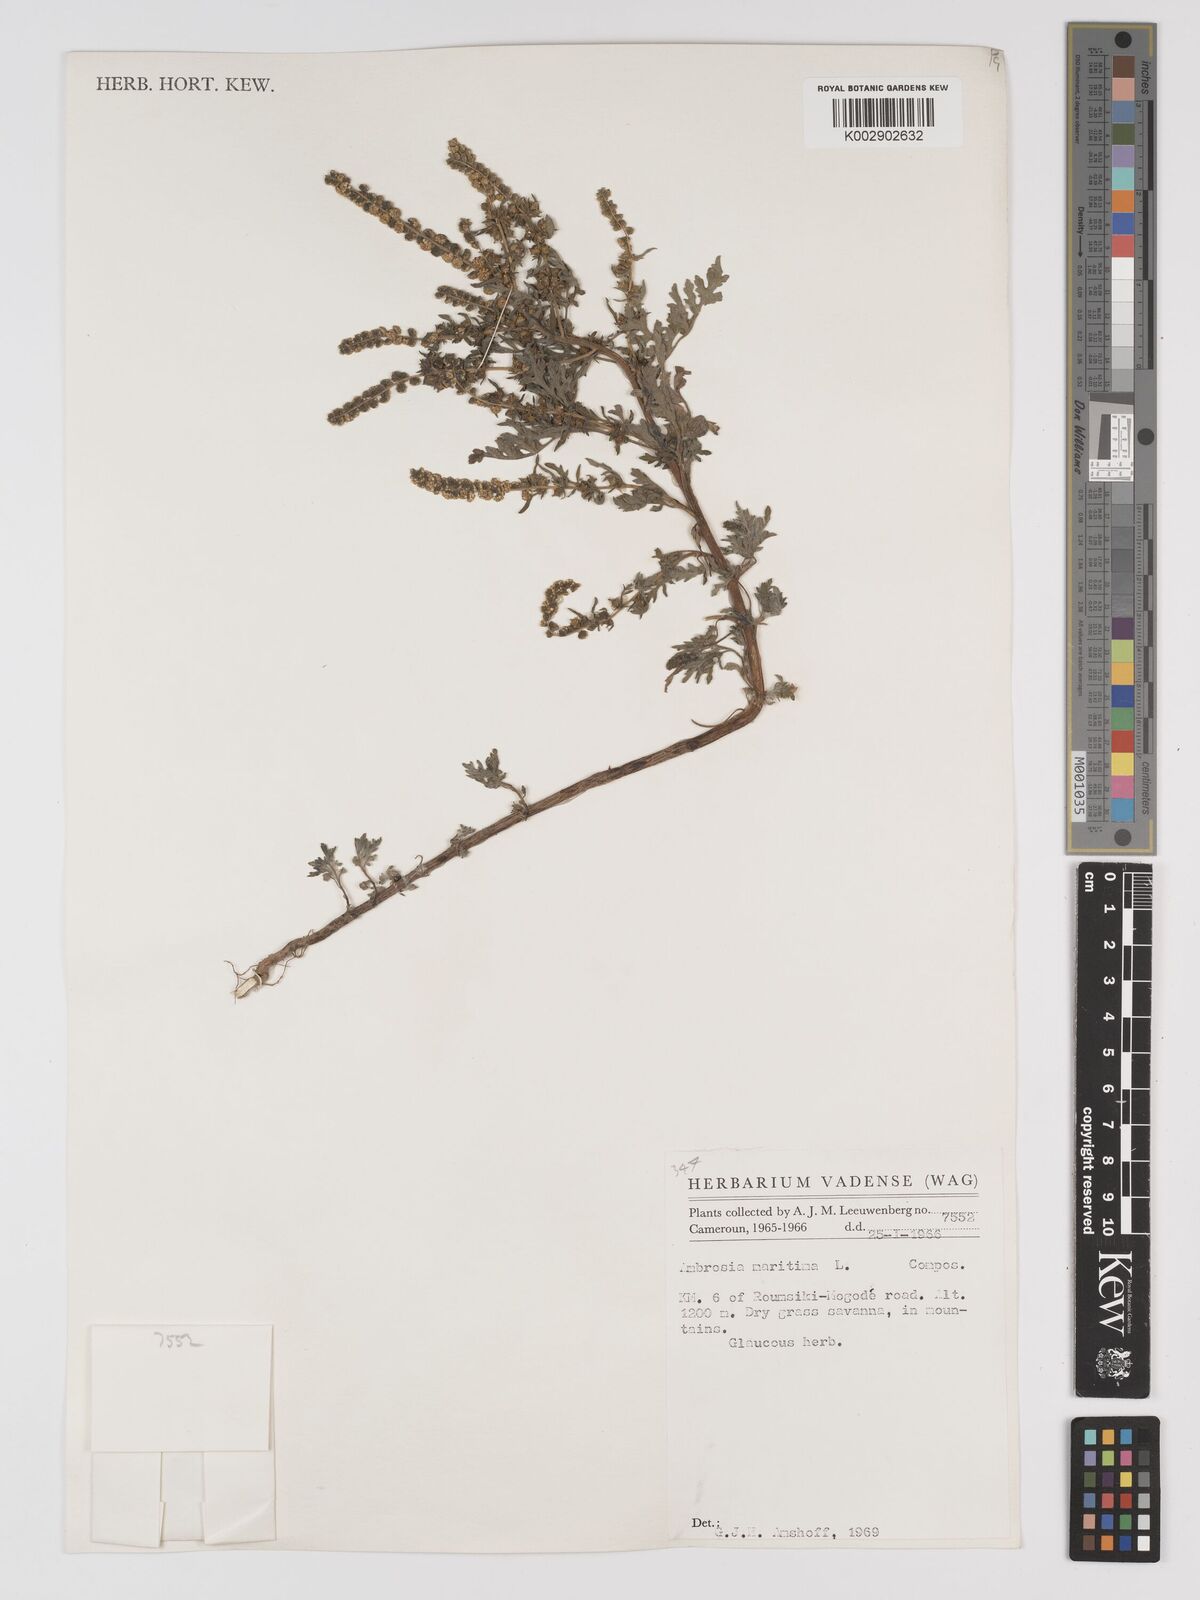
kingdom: Plantae
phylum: Tracheophyta
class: Magnoliopsida
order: Asterales
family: Asteraceae
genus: Ambrosia
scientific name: Ambrosia maritima
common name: Sea ambrosia
